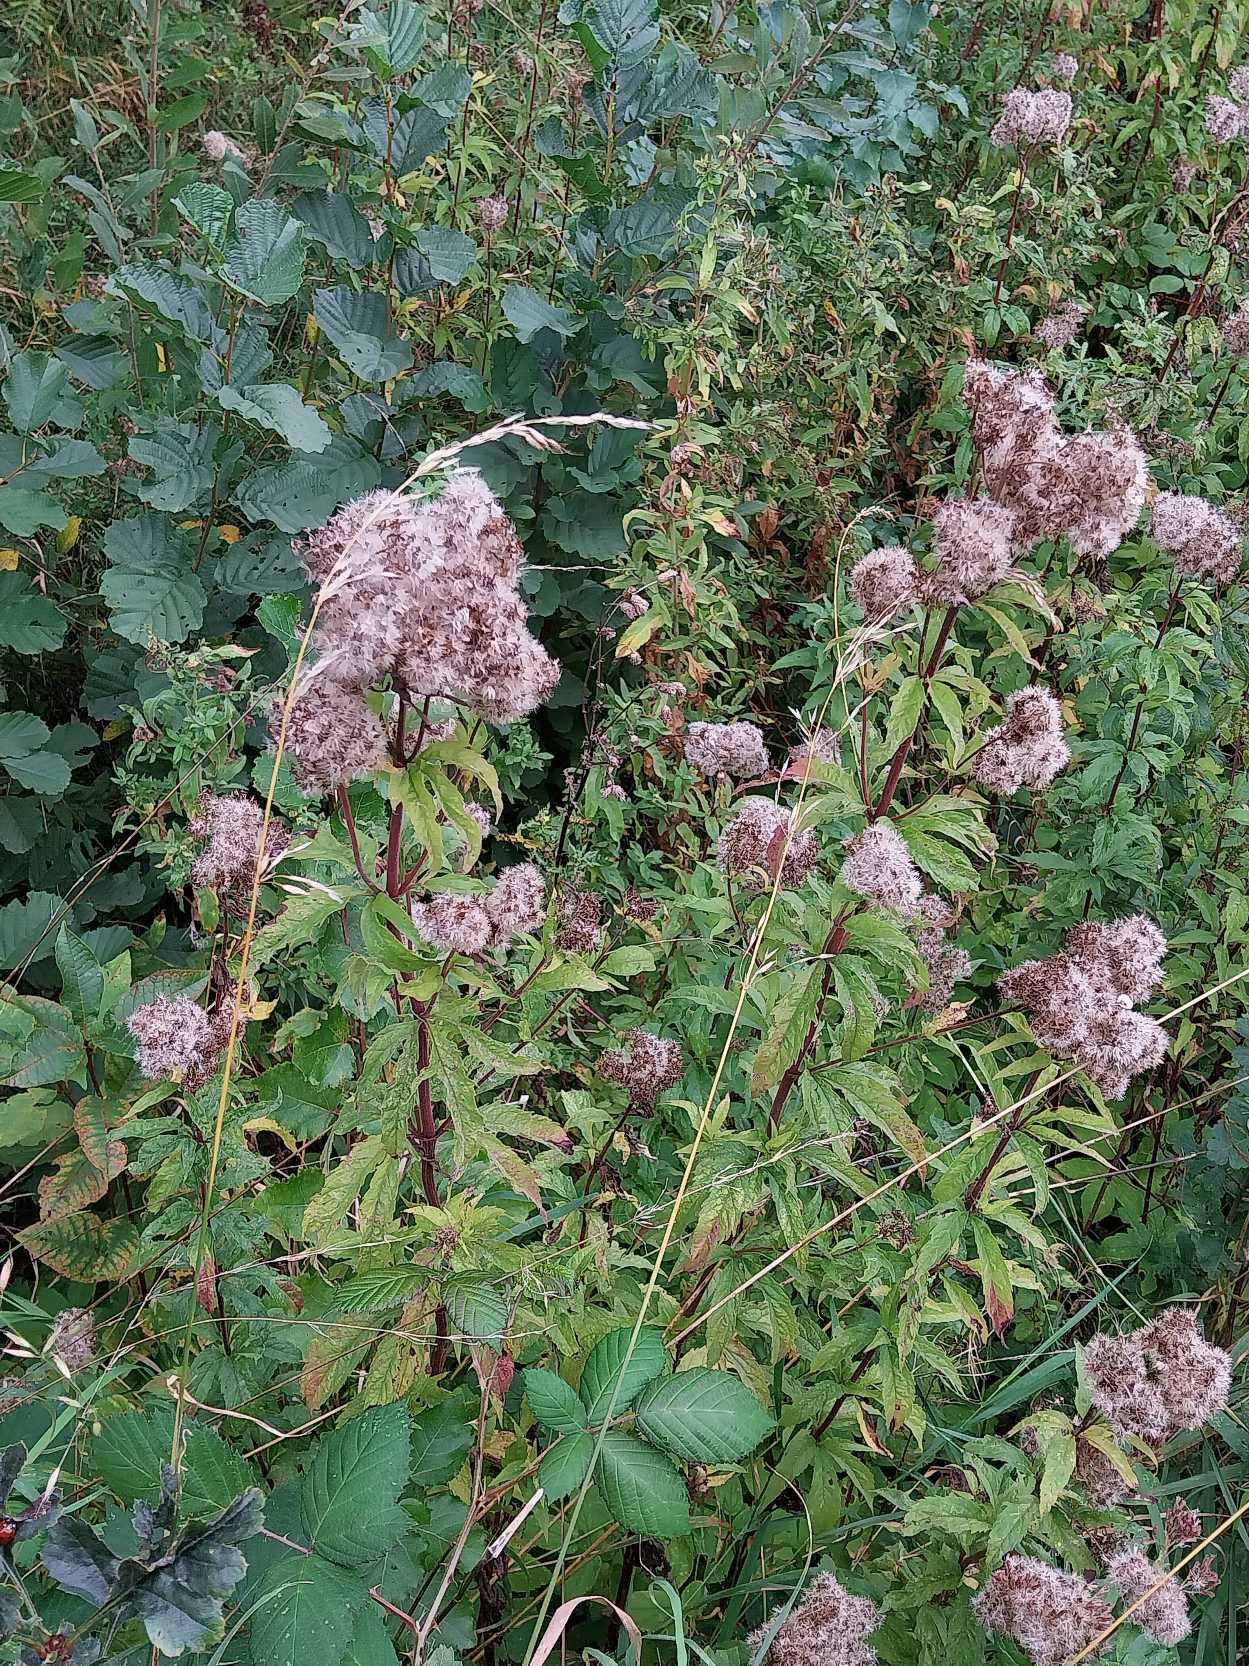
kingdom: Plantae
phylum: Tracheophyta
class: Magnoliopsida
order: Asterales
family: Asteraceae
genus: Eupatorium
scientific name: Eupatorium cannabinum
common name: Hjortetrøst
